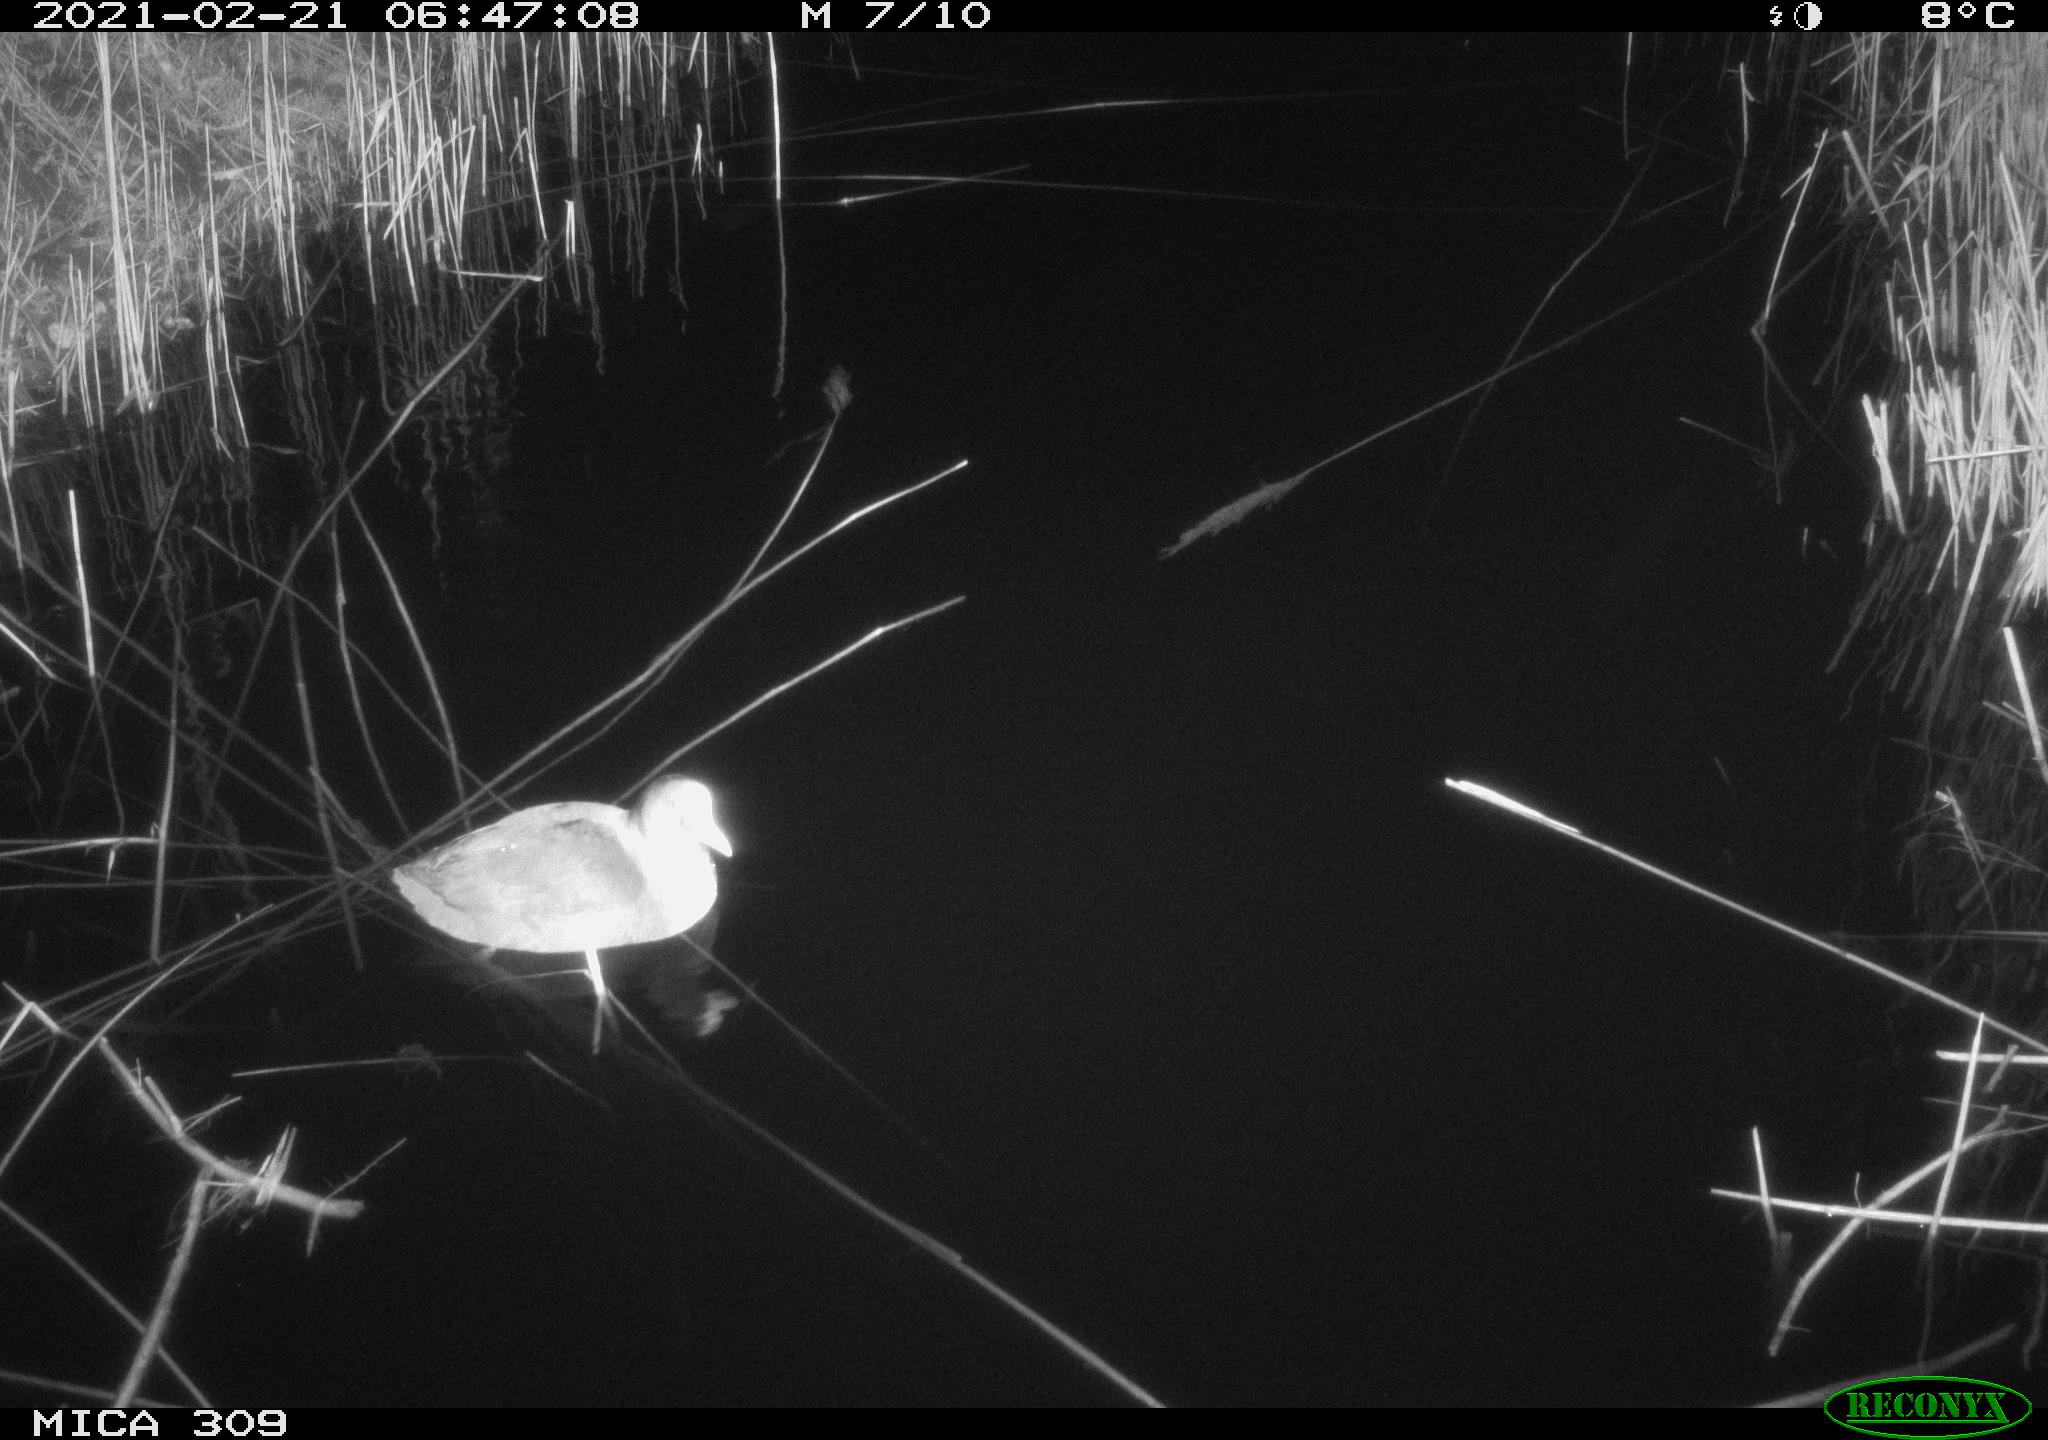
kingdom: Animalia
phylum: Chordata
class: Aves
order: Gruiformes
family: Rallidae
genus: Gallinula
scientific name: Gallinula chloropus
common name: Common moorhen
